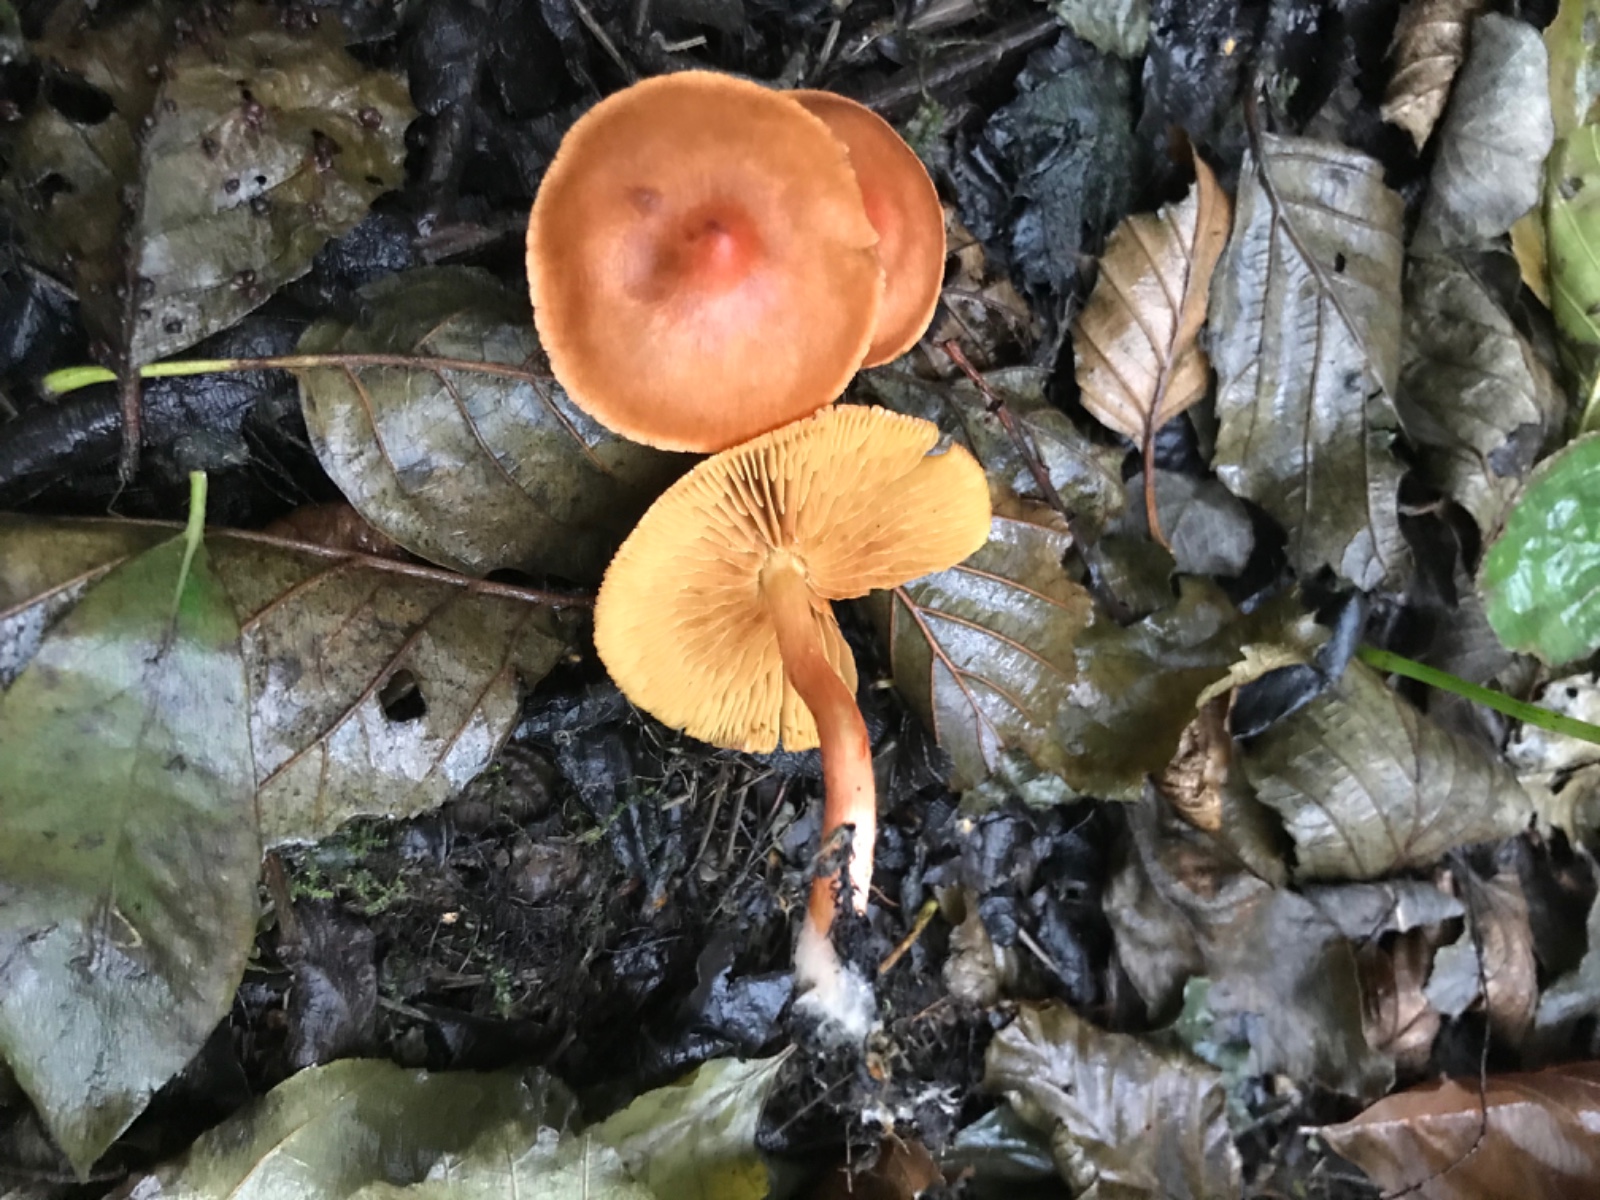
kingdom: Fungi
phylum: Basidiomycota
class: Agaricomycetes
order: Agaricales
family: Cortinariaceae
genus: Cortinarius
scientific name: Cortinarius uliginosus
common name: mose-slørhat
